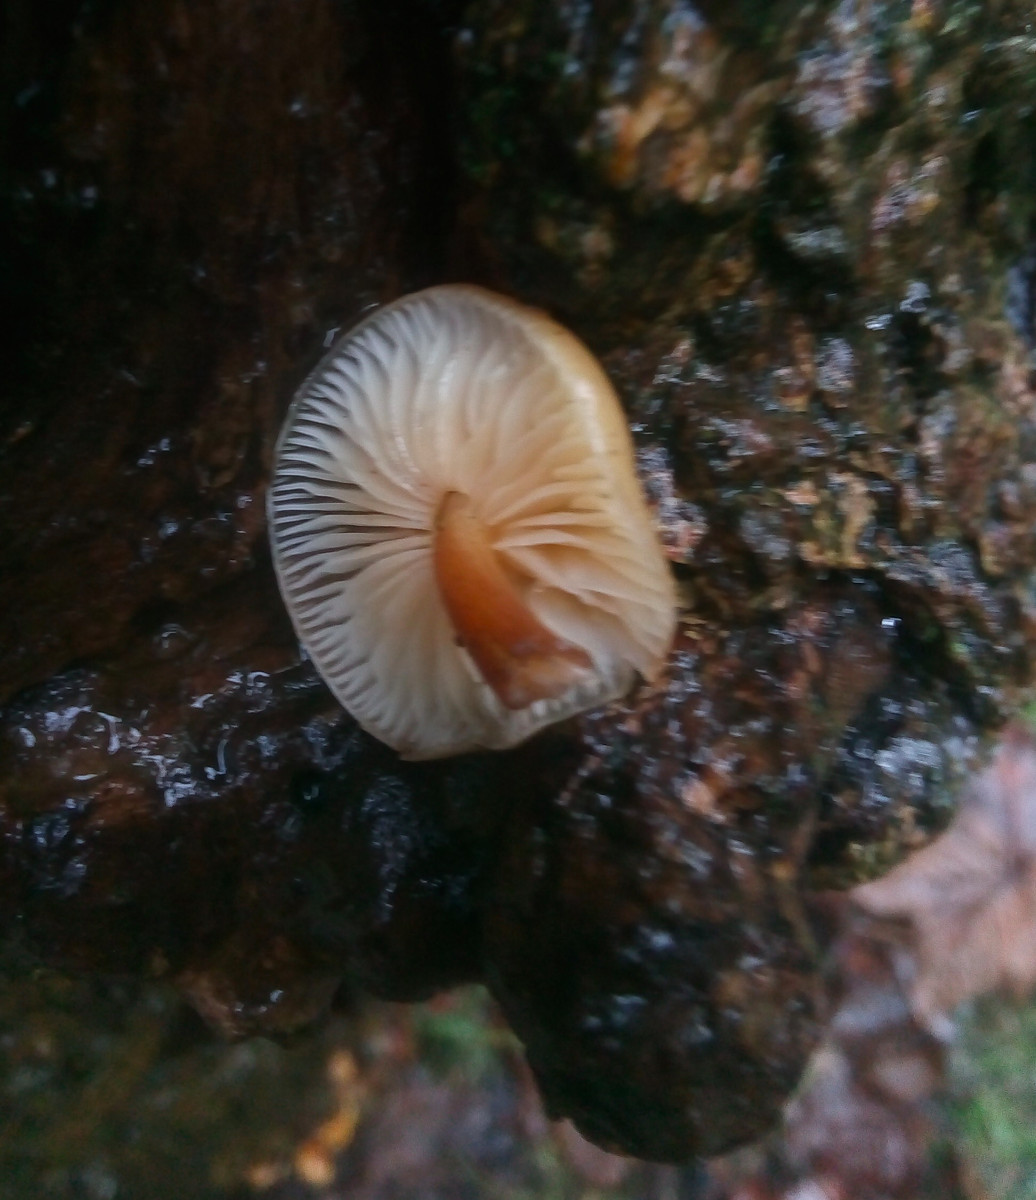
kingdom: Fungi
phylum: Basidiomycota
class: Agaricomycetes
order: Agaricales
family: Physalacriaceae
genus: Flammulina
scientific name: Flammulina velutipes
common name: gul fløjlsfod
